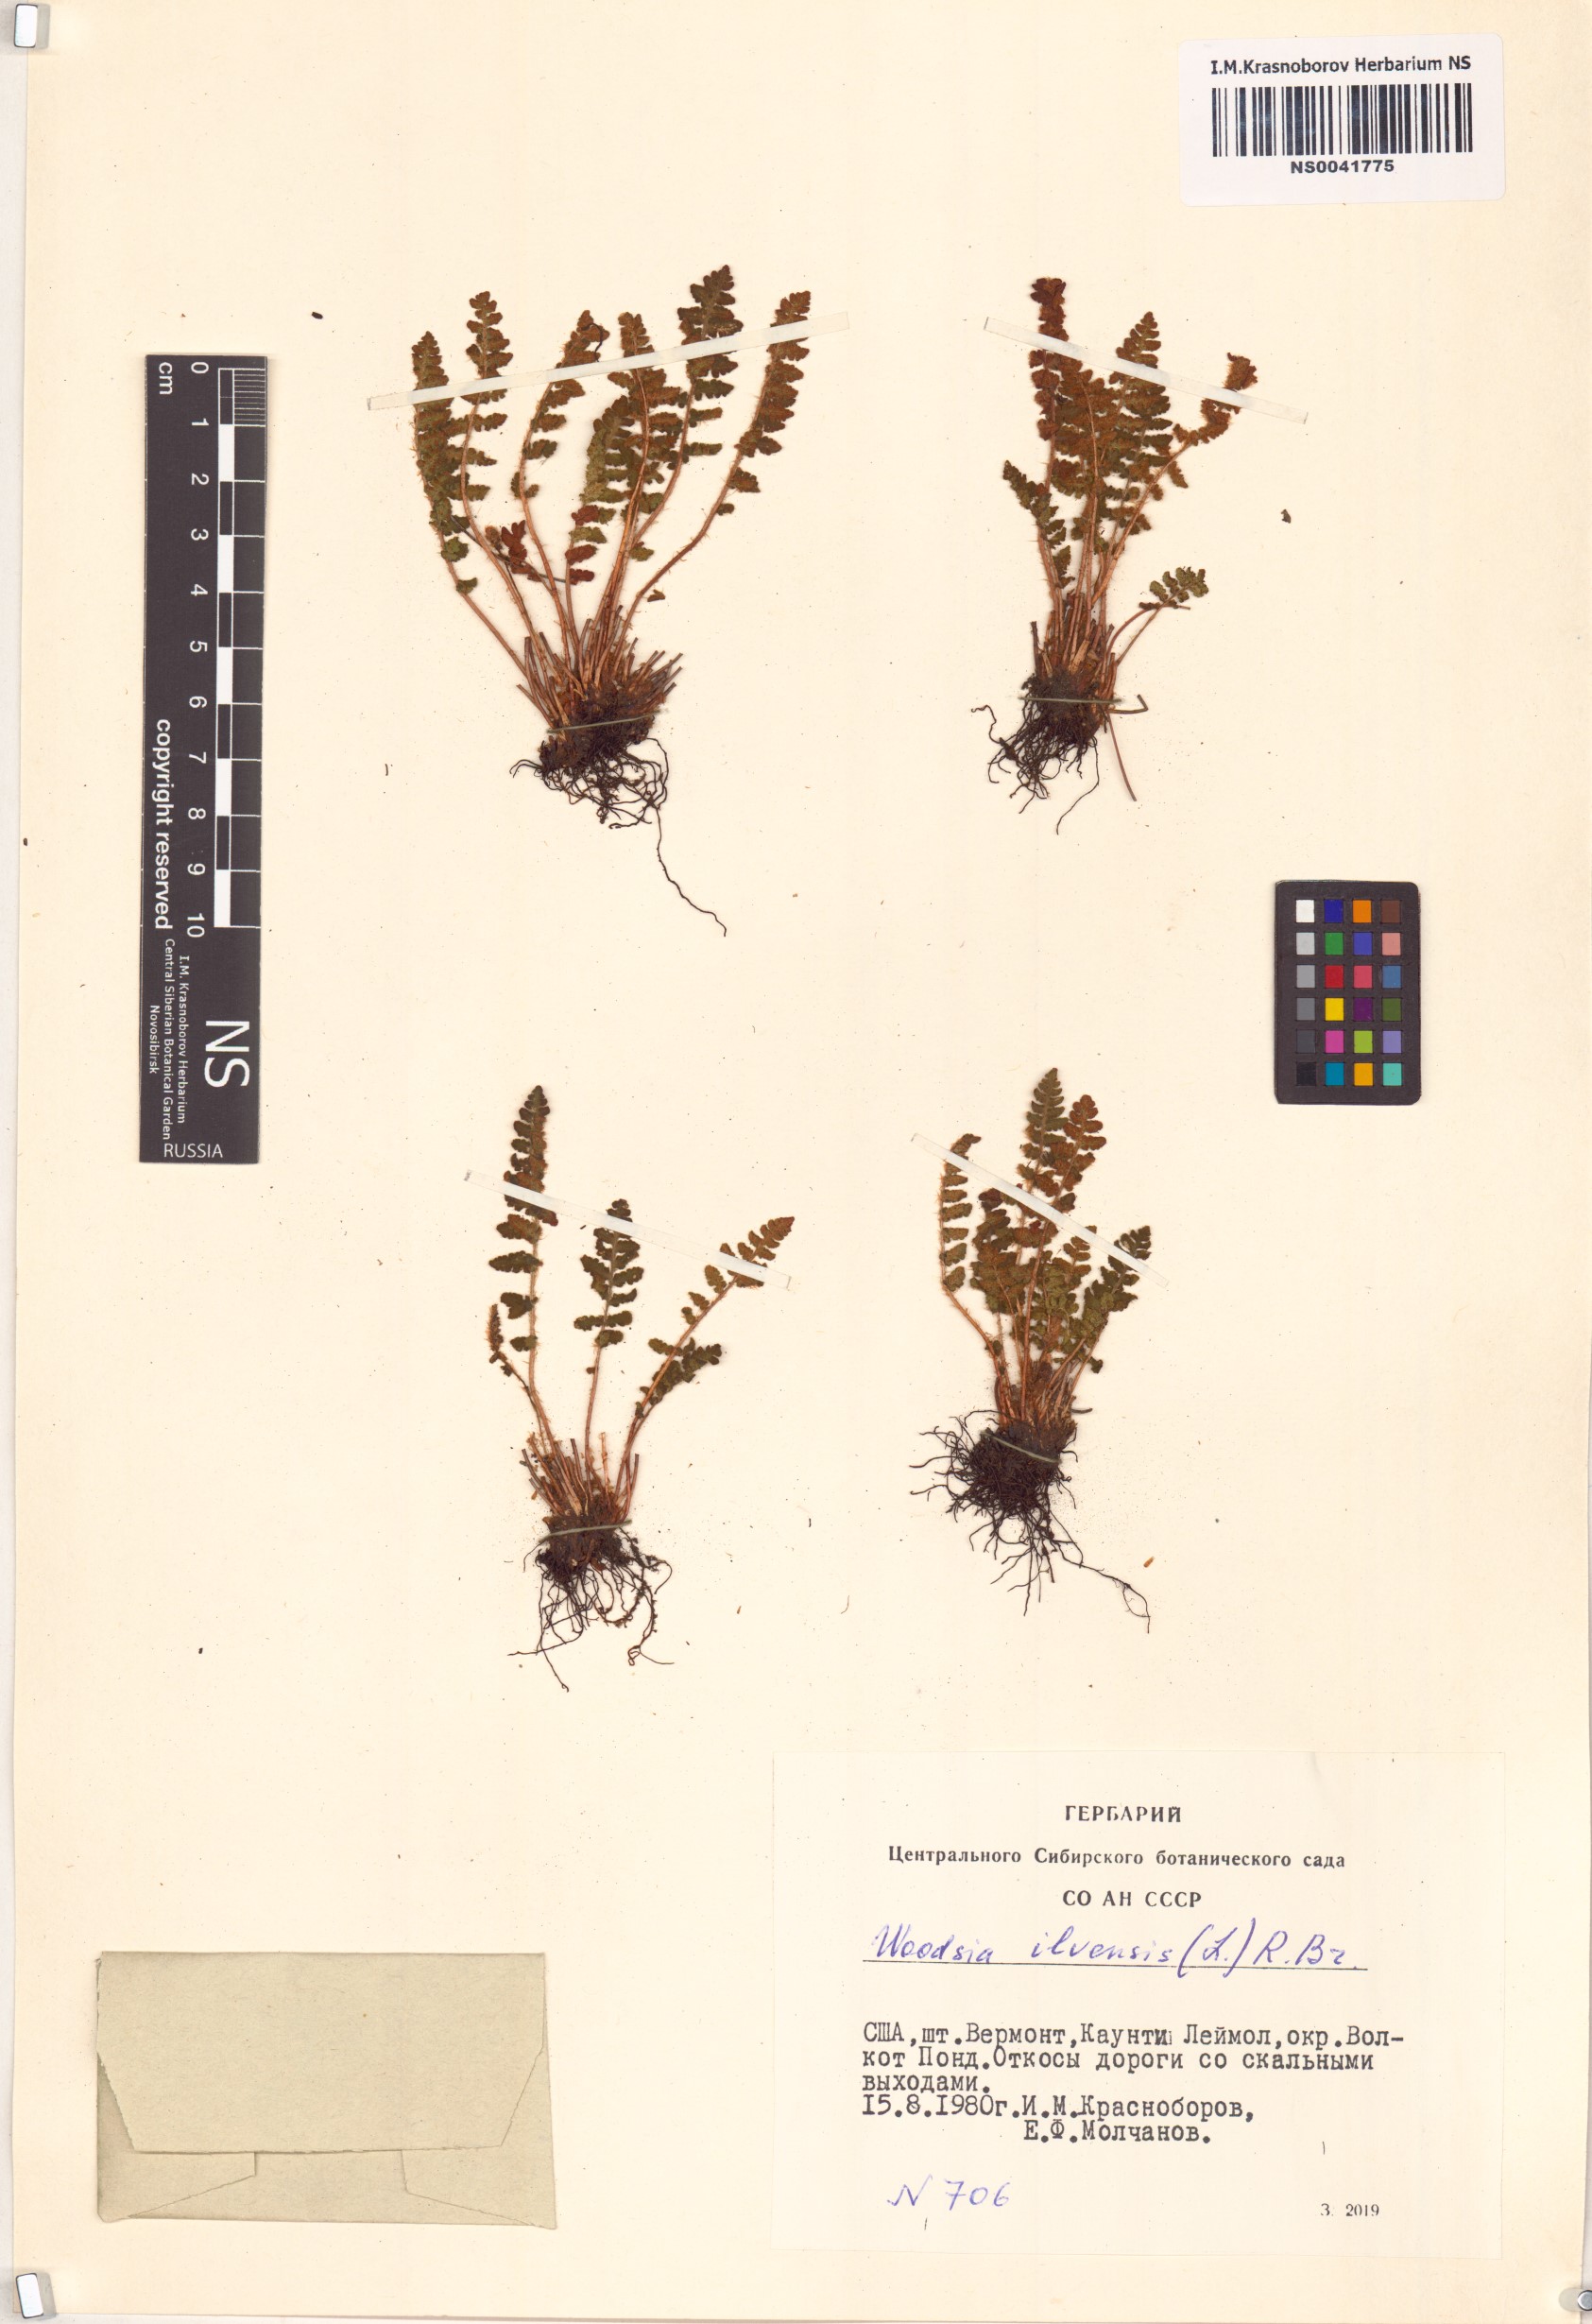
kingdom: Plantae
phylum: Tracheophyta
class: Polypodiopsida
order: Polypodiales
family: Woodsiaceae
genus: Woodsia
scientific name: Woodsia ilvensis
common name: Fragrant woodsia
